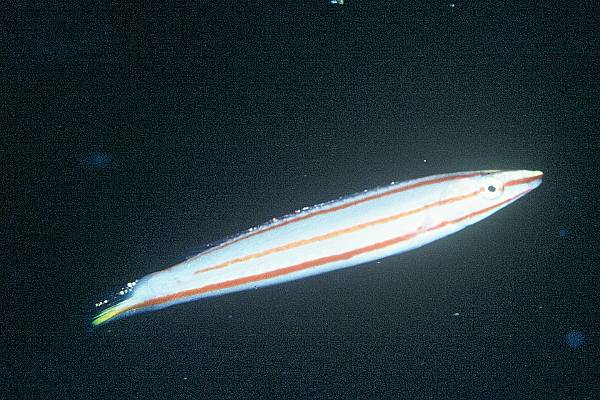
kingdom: Animalia
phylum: Chordata
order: Perciformes
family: Labridae
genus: Hologymnosus
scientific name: Hologymnosus doliatus
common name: Pastel ringwrasse
